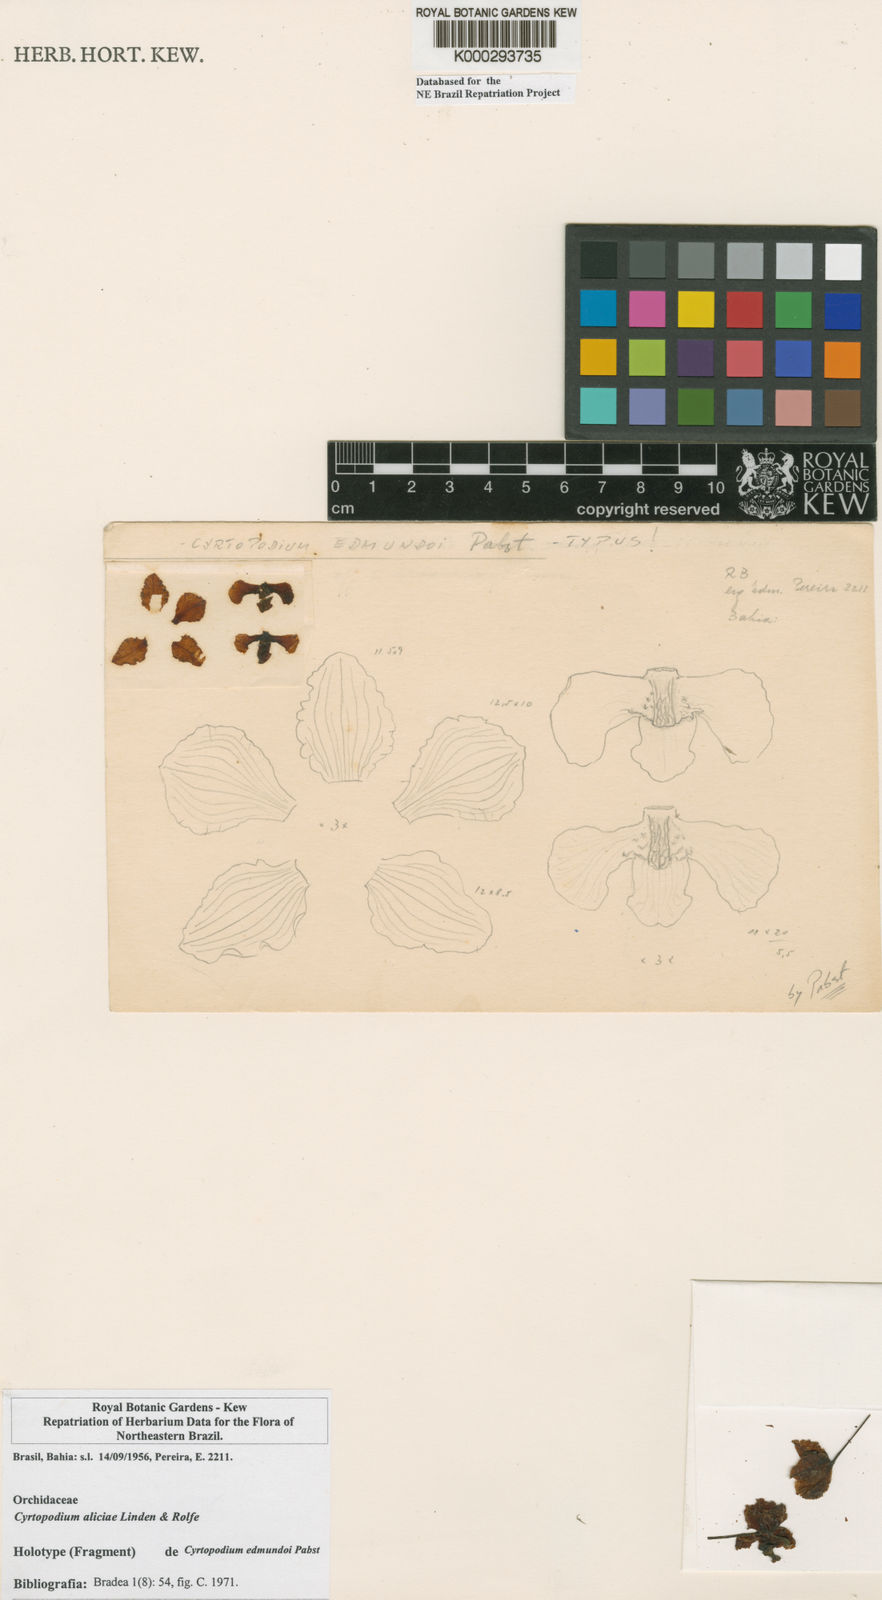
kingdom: Plantae
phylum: Tracheophyta
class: Liliopsida
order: Asparagales
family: Orchidaceae
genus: Cyrtopodium
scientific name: Cyrtopodium aliciae
